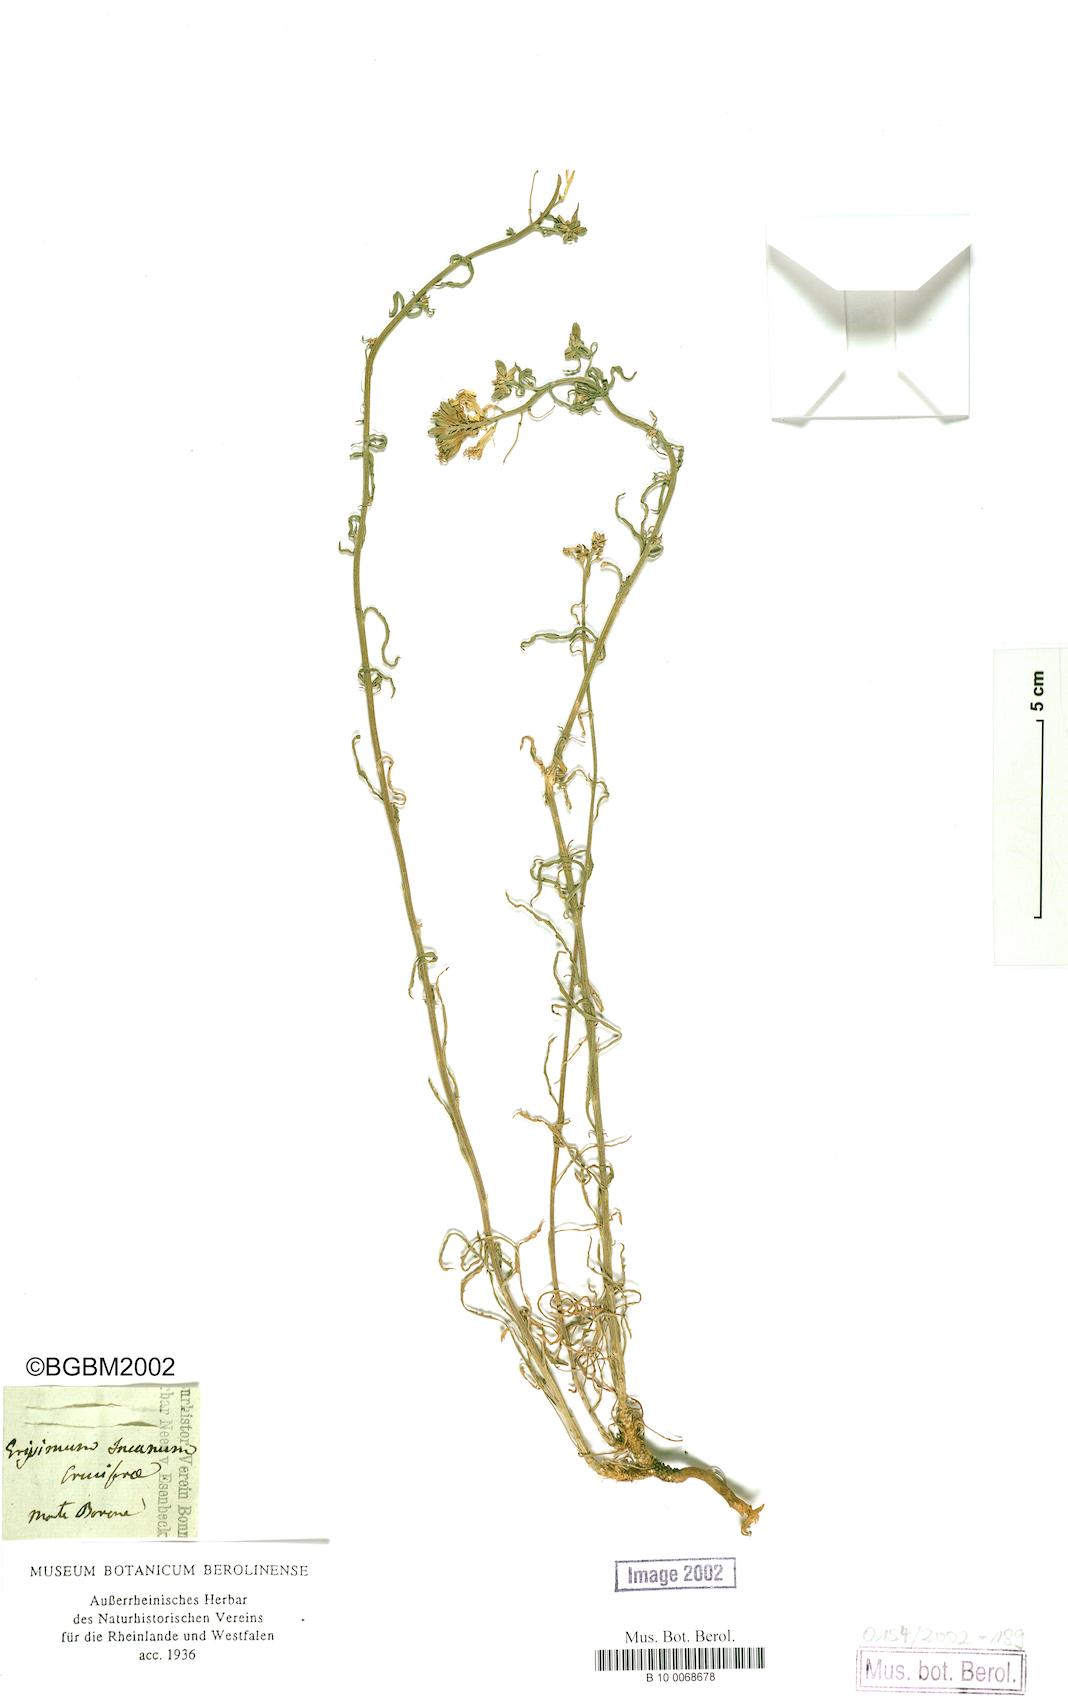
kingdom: Plantae
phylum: Tracheophyta
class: Magnoliopsida
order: Brassicales
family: Brassicaceae
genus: Erysimum
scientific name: Erysimum incanum
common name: Hoary treacle mustard
